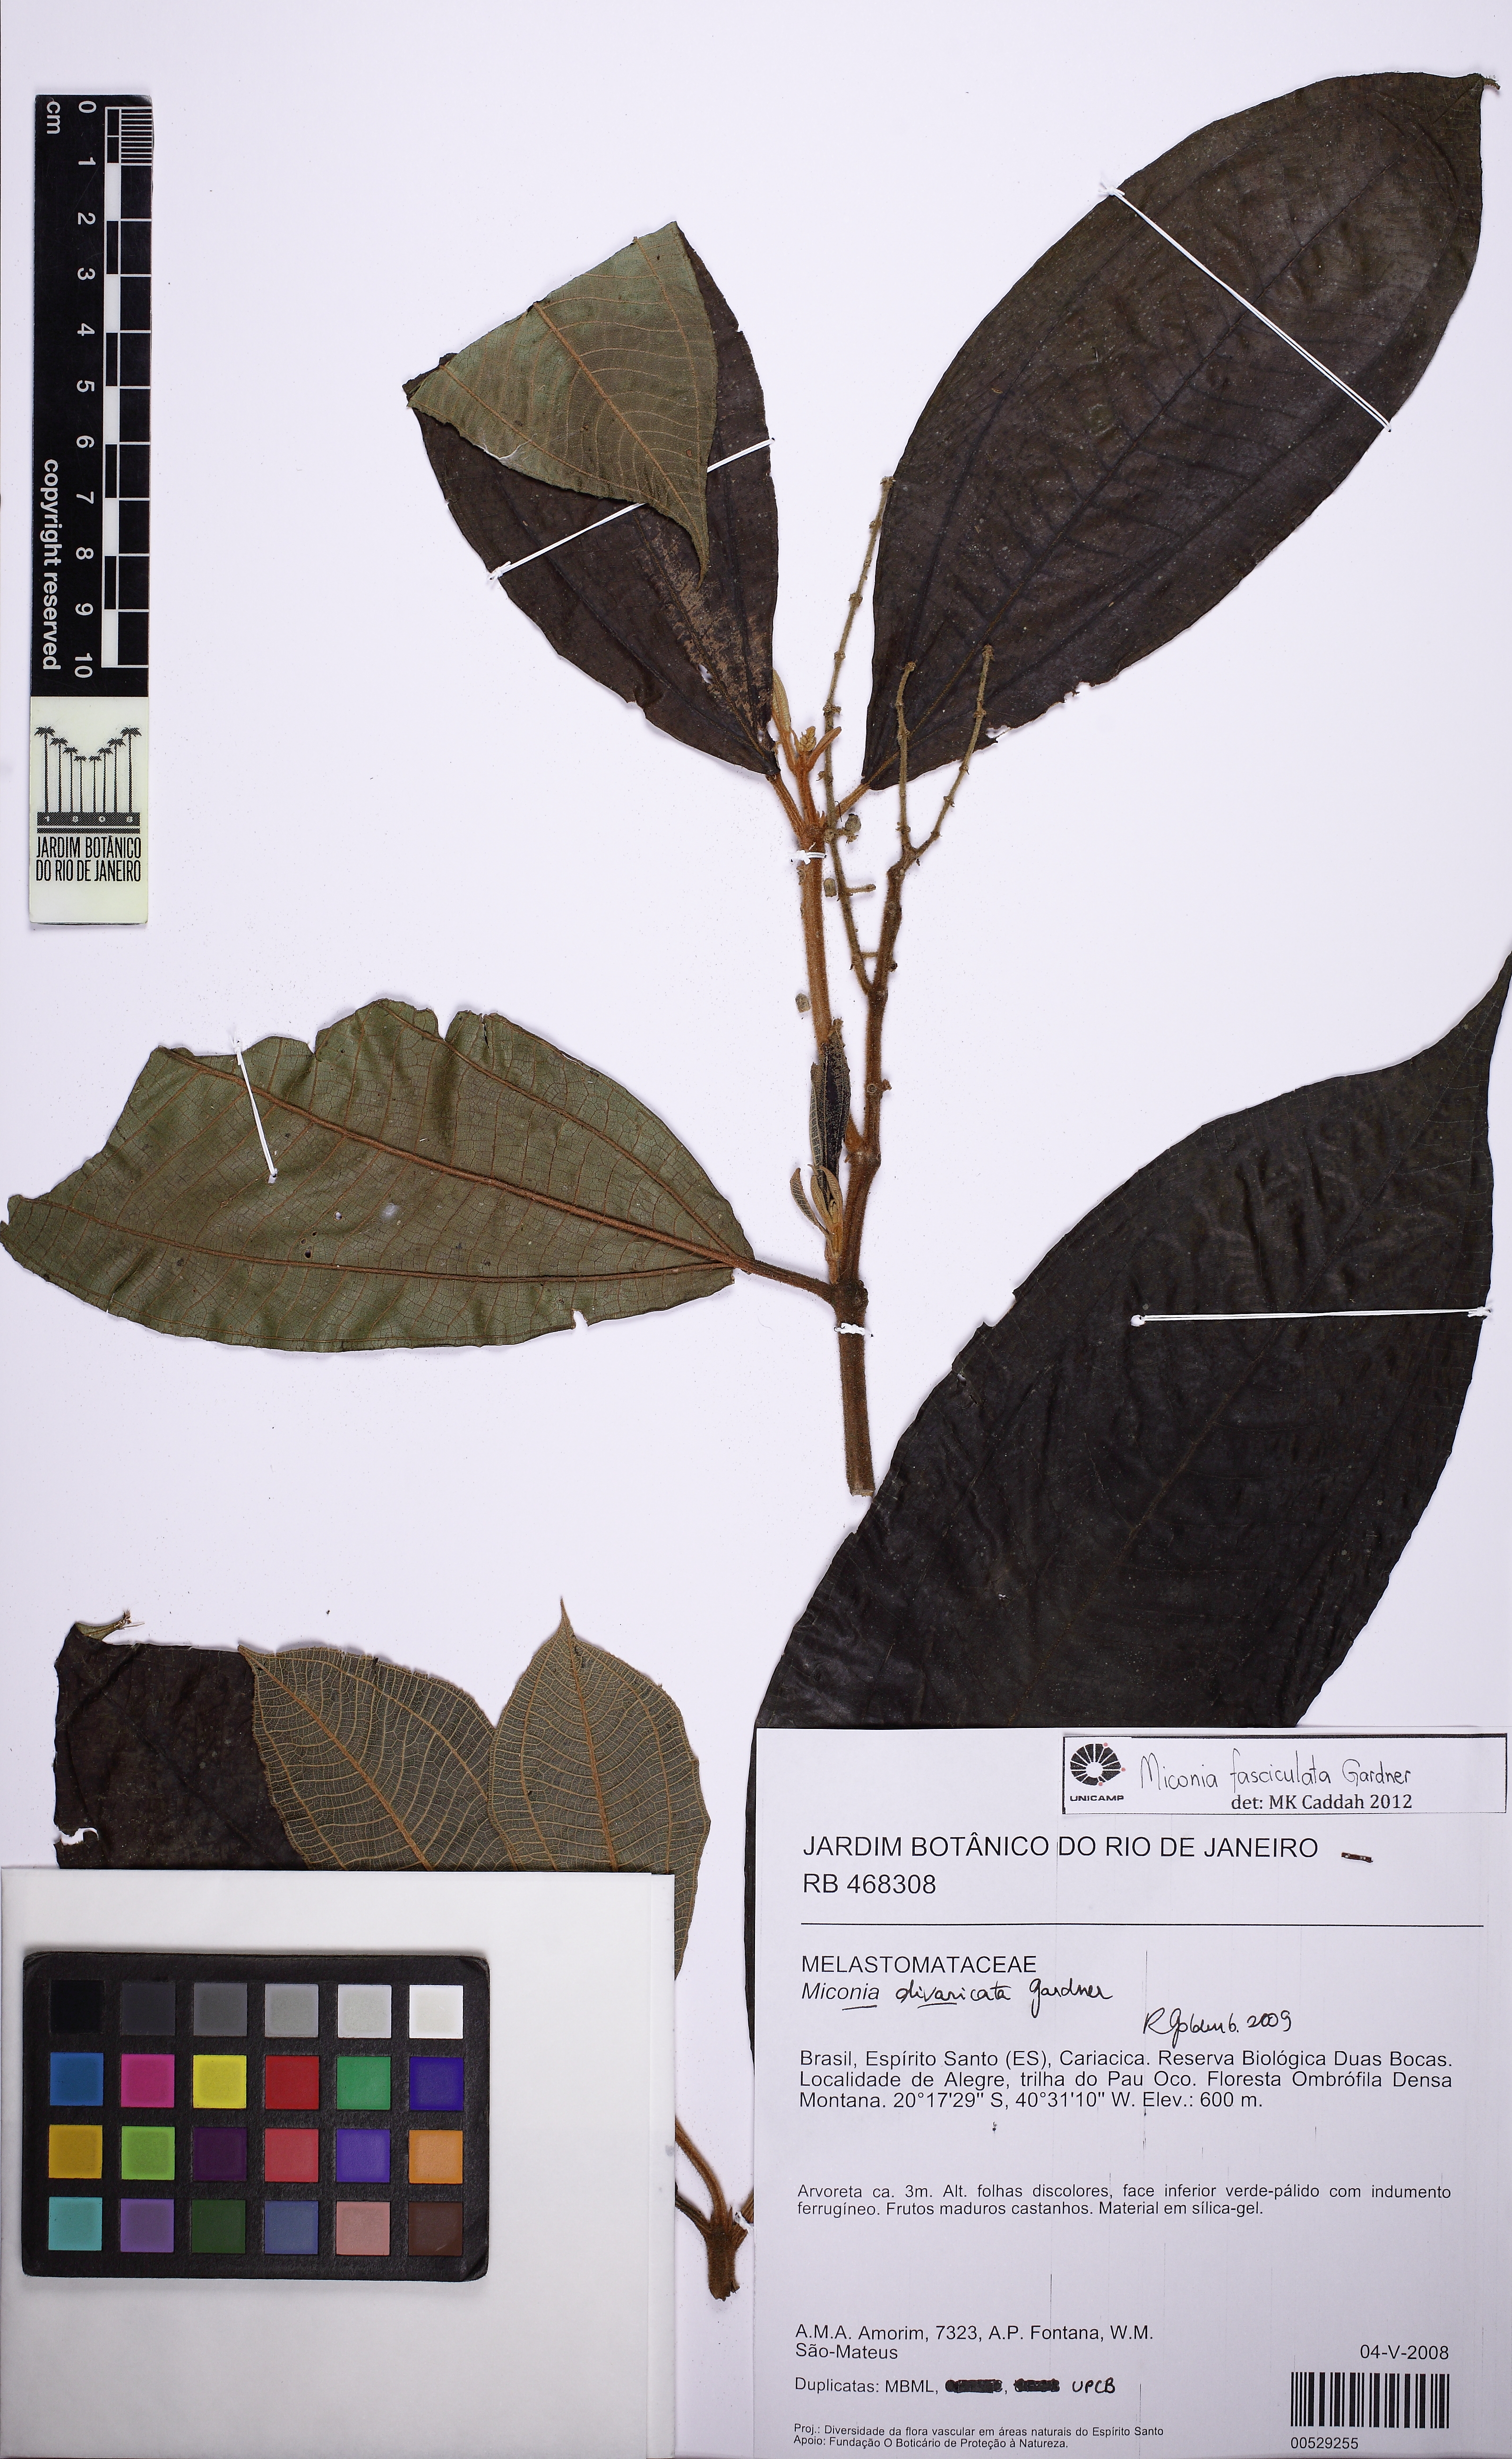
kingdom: Plantae
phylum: Tracheophyta
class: Magnoliopsida
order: Myrtales
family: Melastomataceae
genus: Miconia
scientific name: Miconia fasciculata
